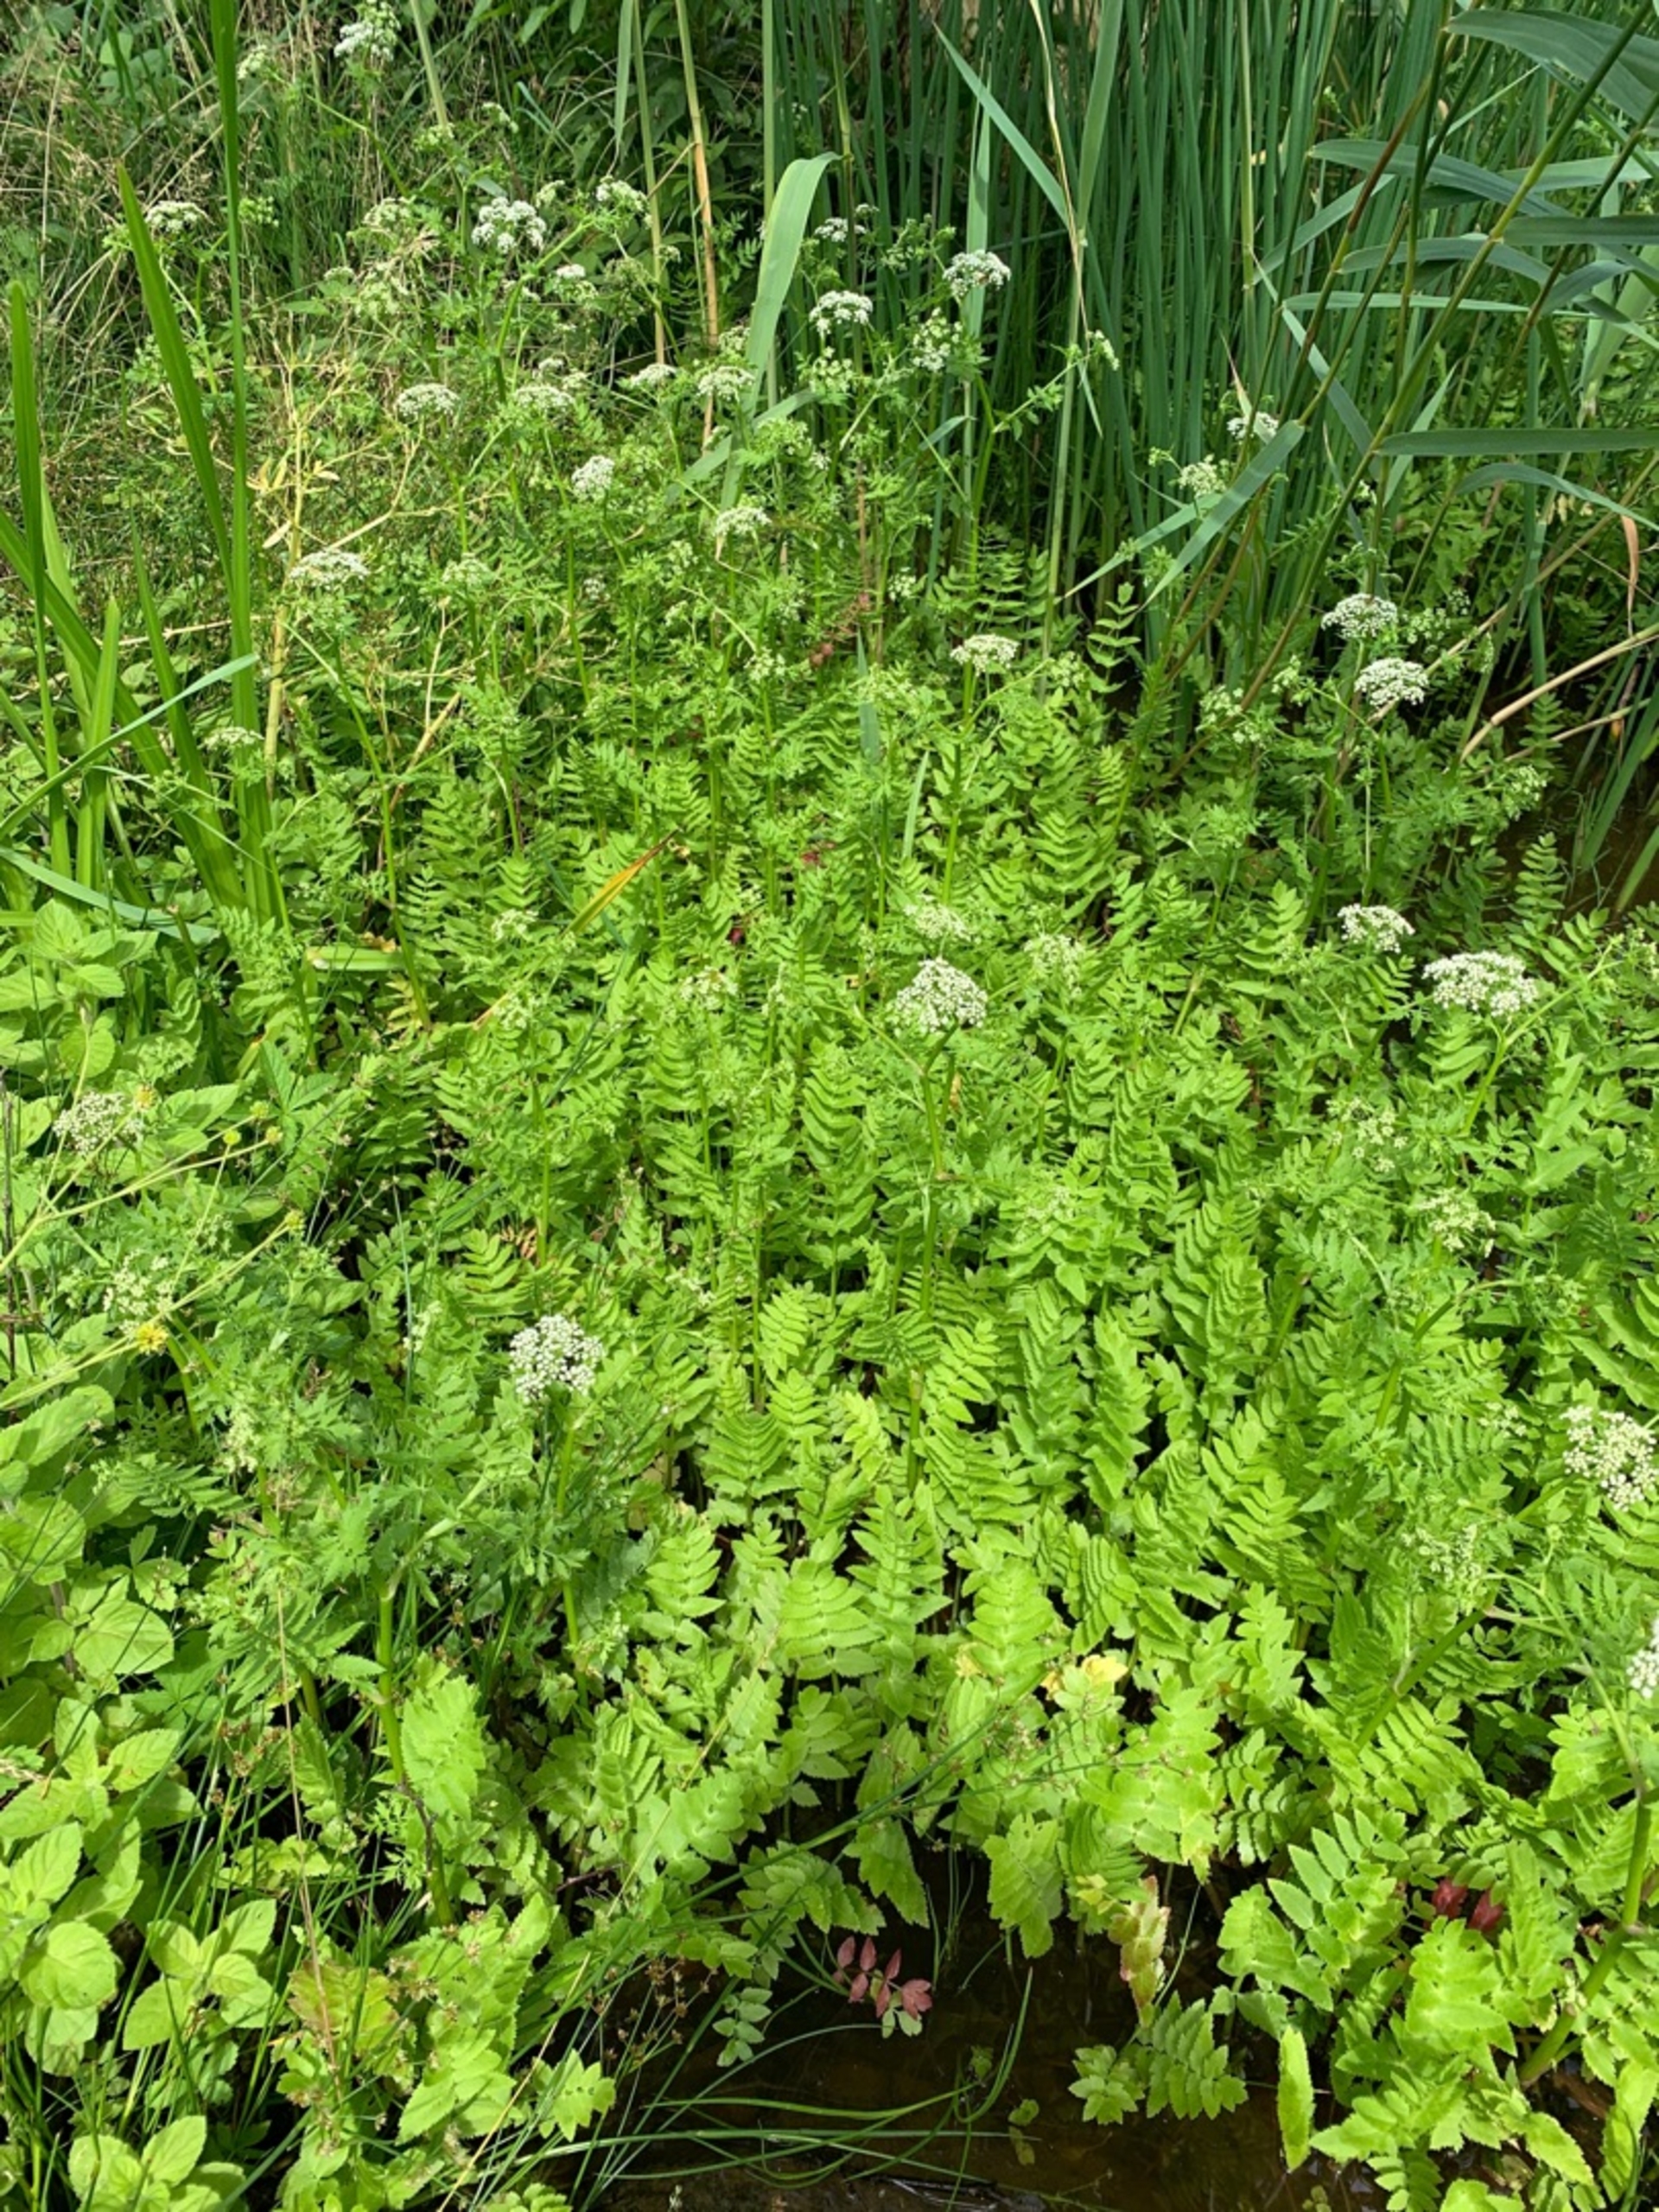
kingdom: Plantae
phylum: Tracheophyta
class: Magnoliopsida
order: Apiales
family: Apiaceae
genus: Berula
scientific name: Berula erecta
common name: Sideskærm
